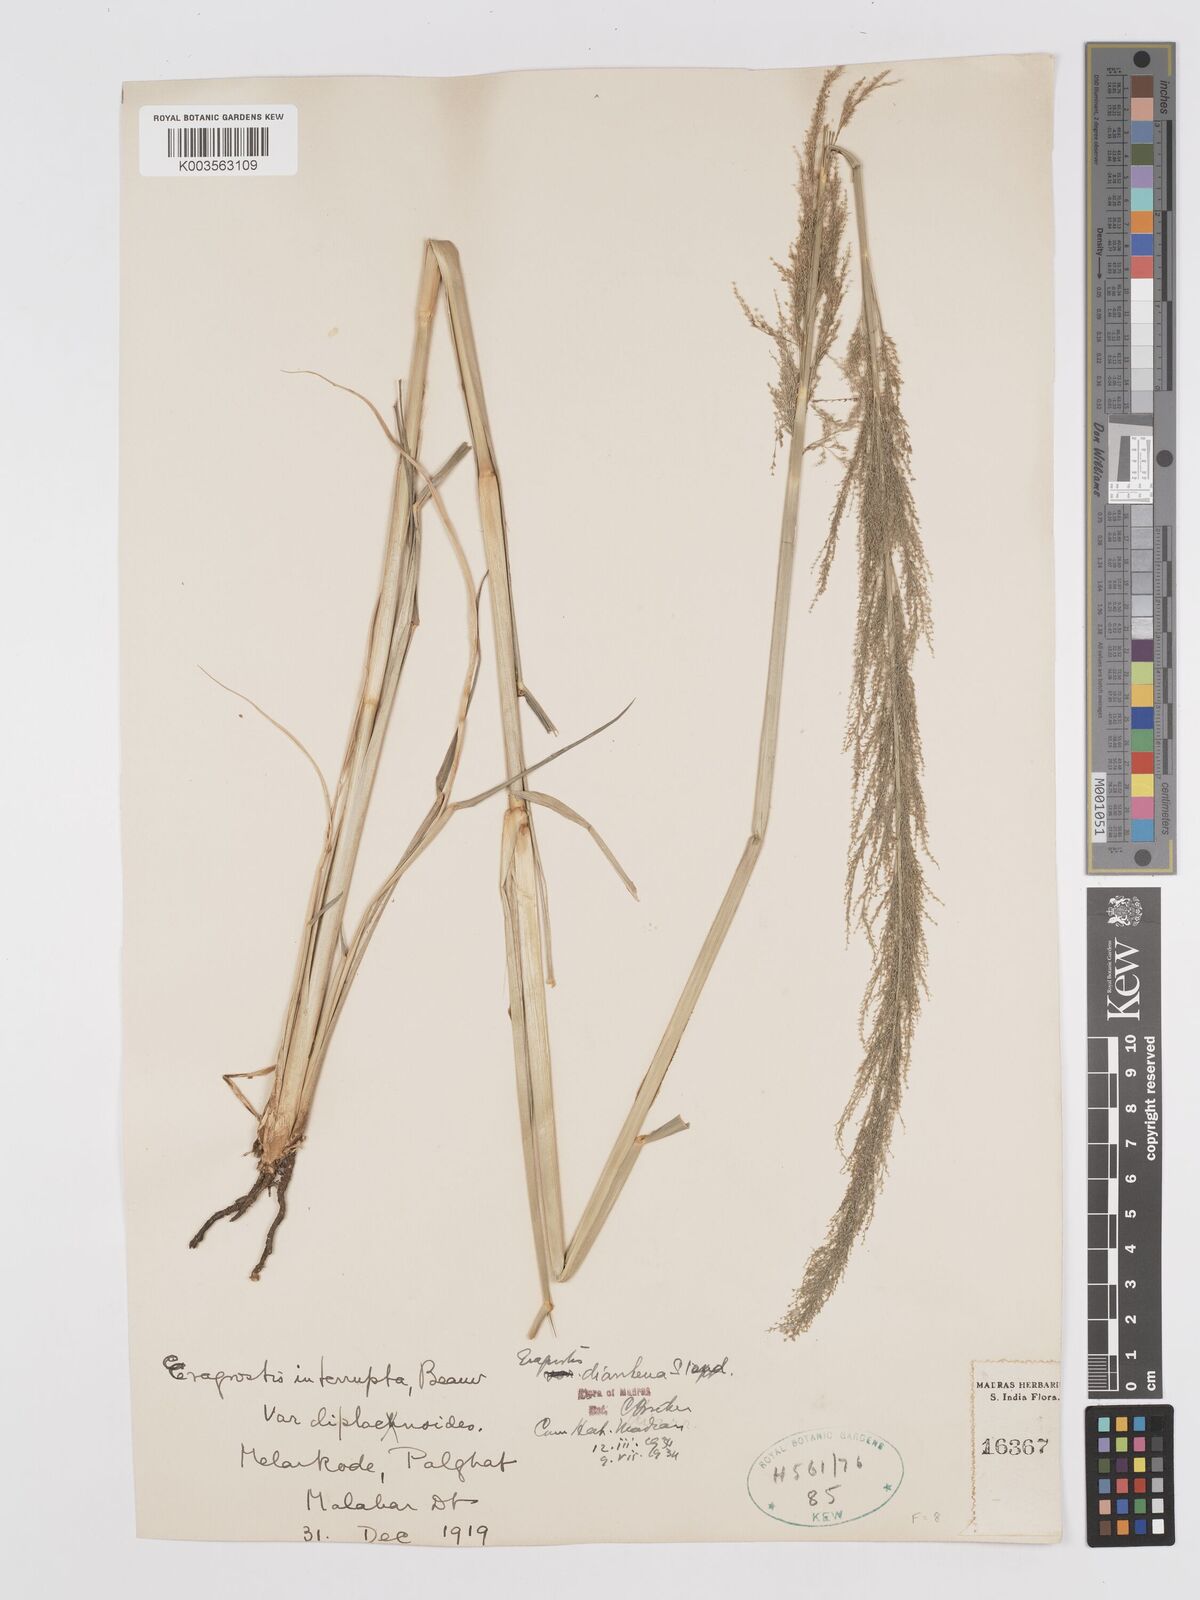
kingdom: Plantae
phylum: Tracheophyta
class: Liliopsida
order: Poales
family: Poaceae
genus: Eragrostis
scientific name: Eragrostis japonica
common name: Pond lovegrass
